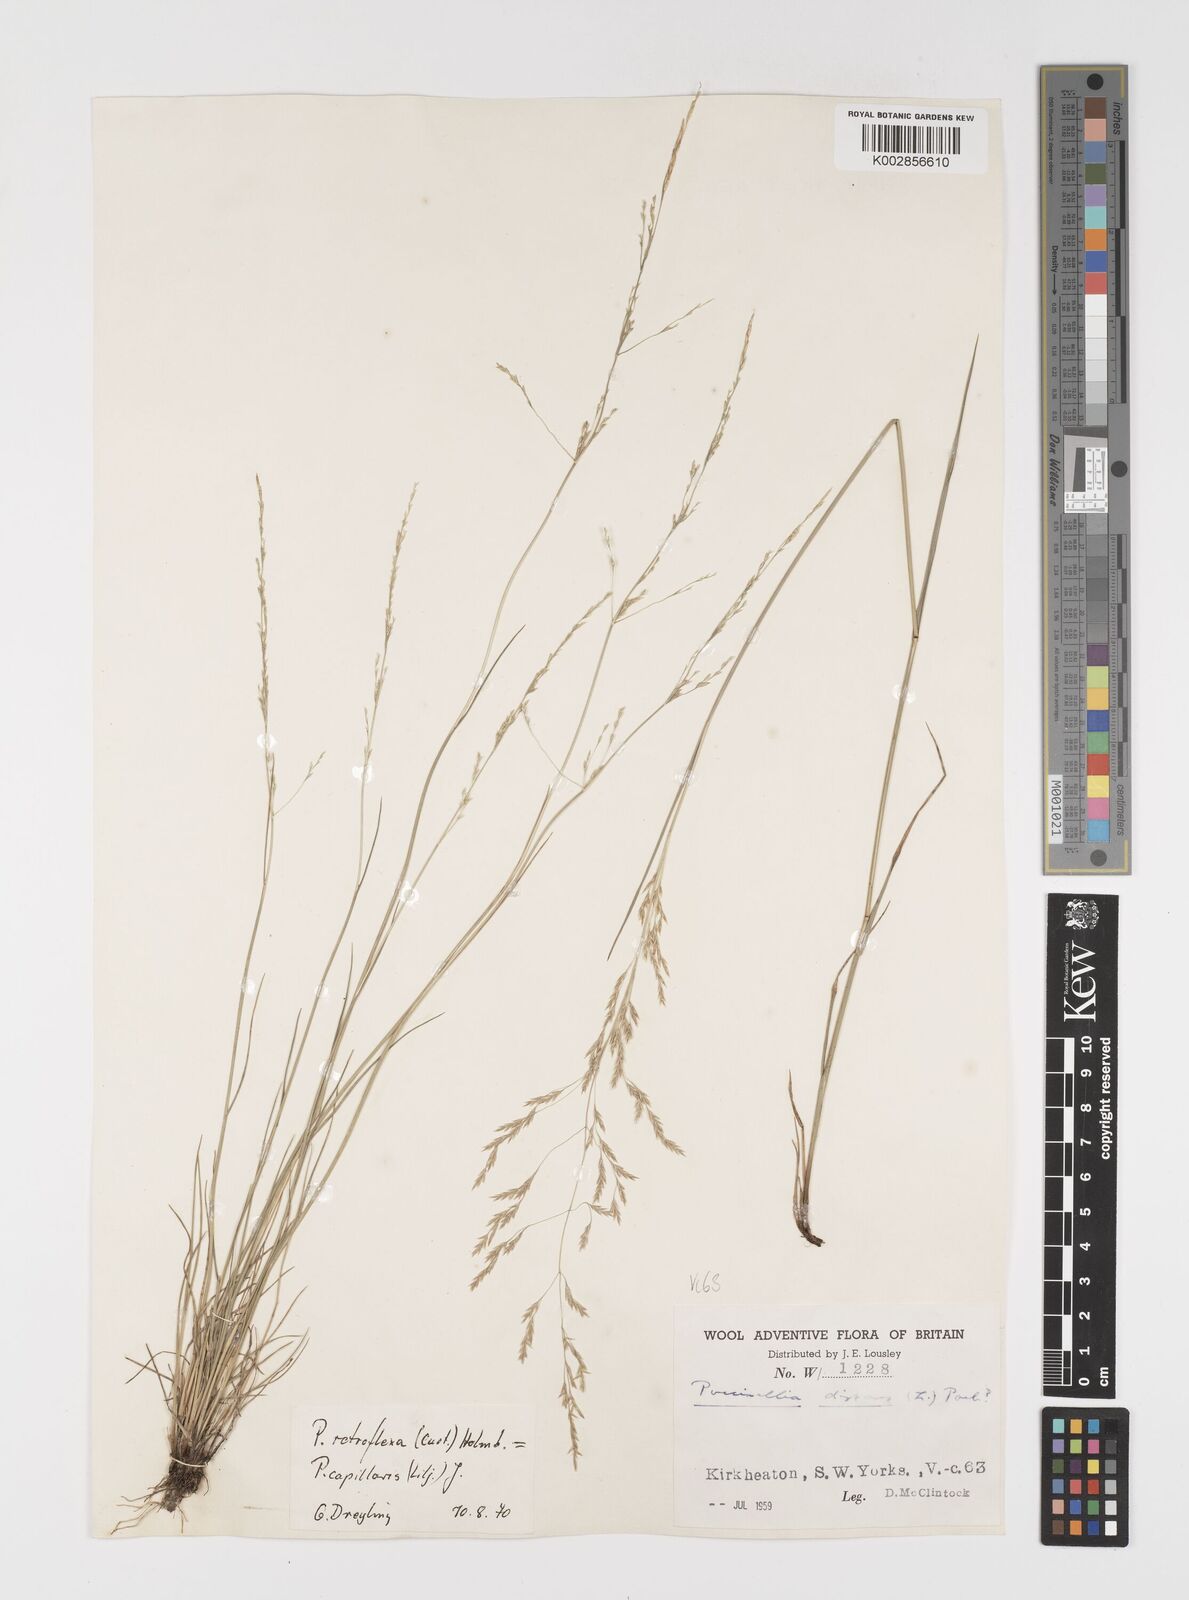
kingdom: Plantae
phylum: Tracheophyta
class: Liliopsida
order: Poales
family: Poaceae
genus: Puccinellia
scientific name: Puccinellia distans
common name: Weeping alkaligrass
